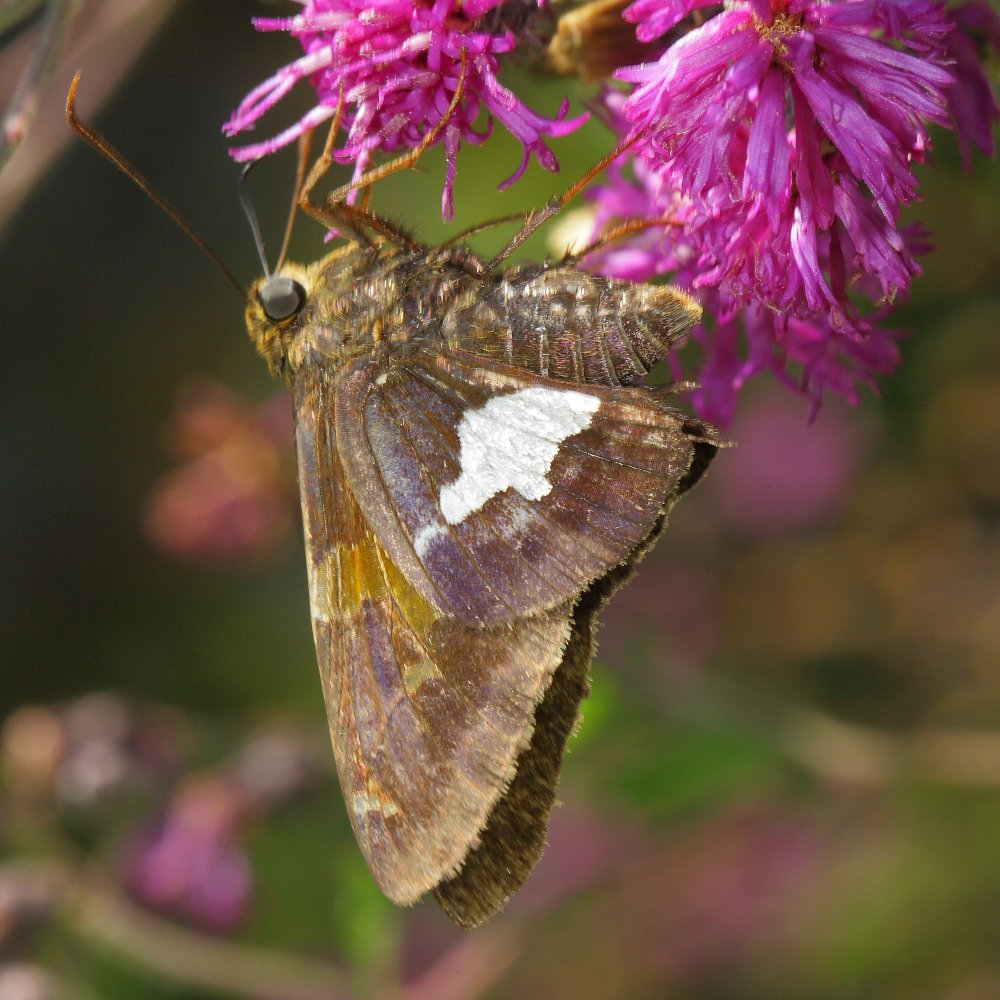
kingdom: Animalia
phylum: Arthropoda
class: Insecta
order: Lepidoptera
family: Hesperiidae
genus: Epargyreus
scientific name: Epargyreus clarus
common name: Silver-spotted Skipper
